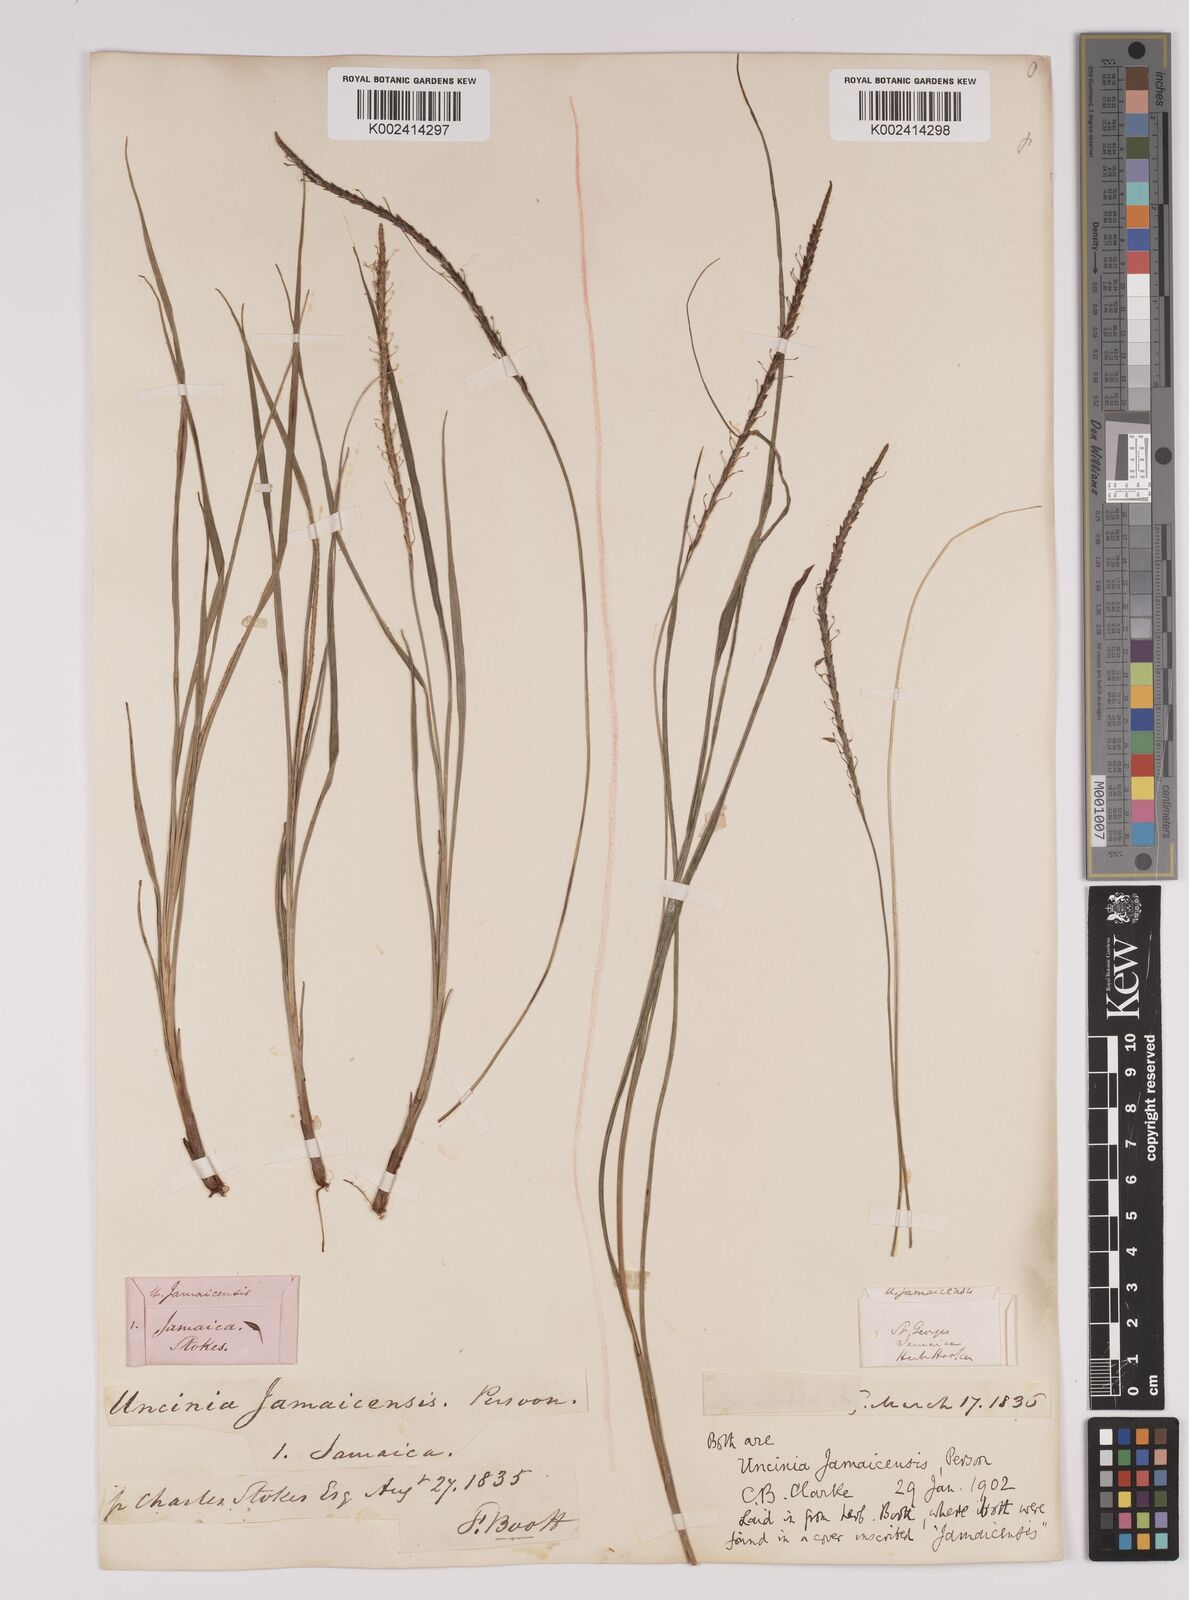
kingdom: Plantae
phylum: Tracheophyta
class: Liliopsida
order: Poales
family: Cyperaceae
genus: Carex
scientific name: Carex hamata
